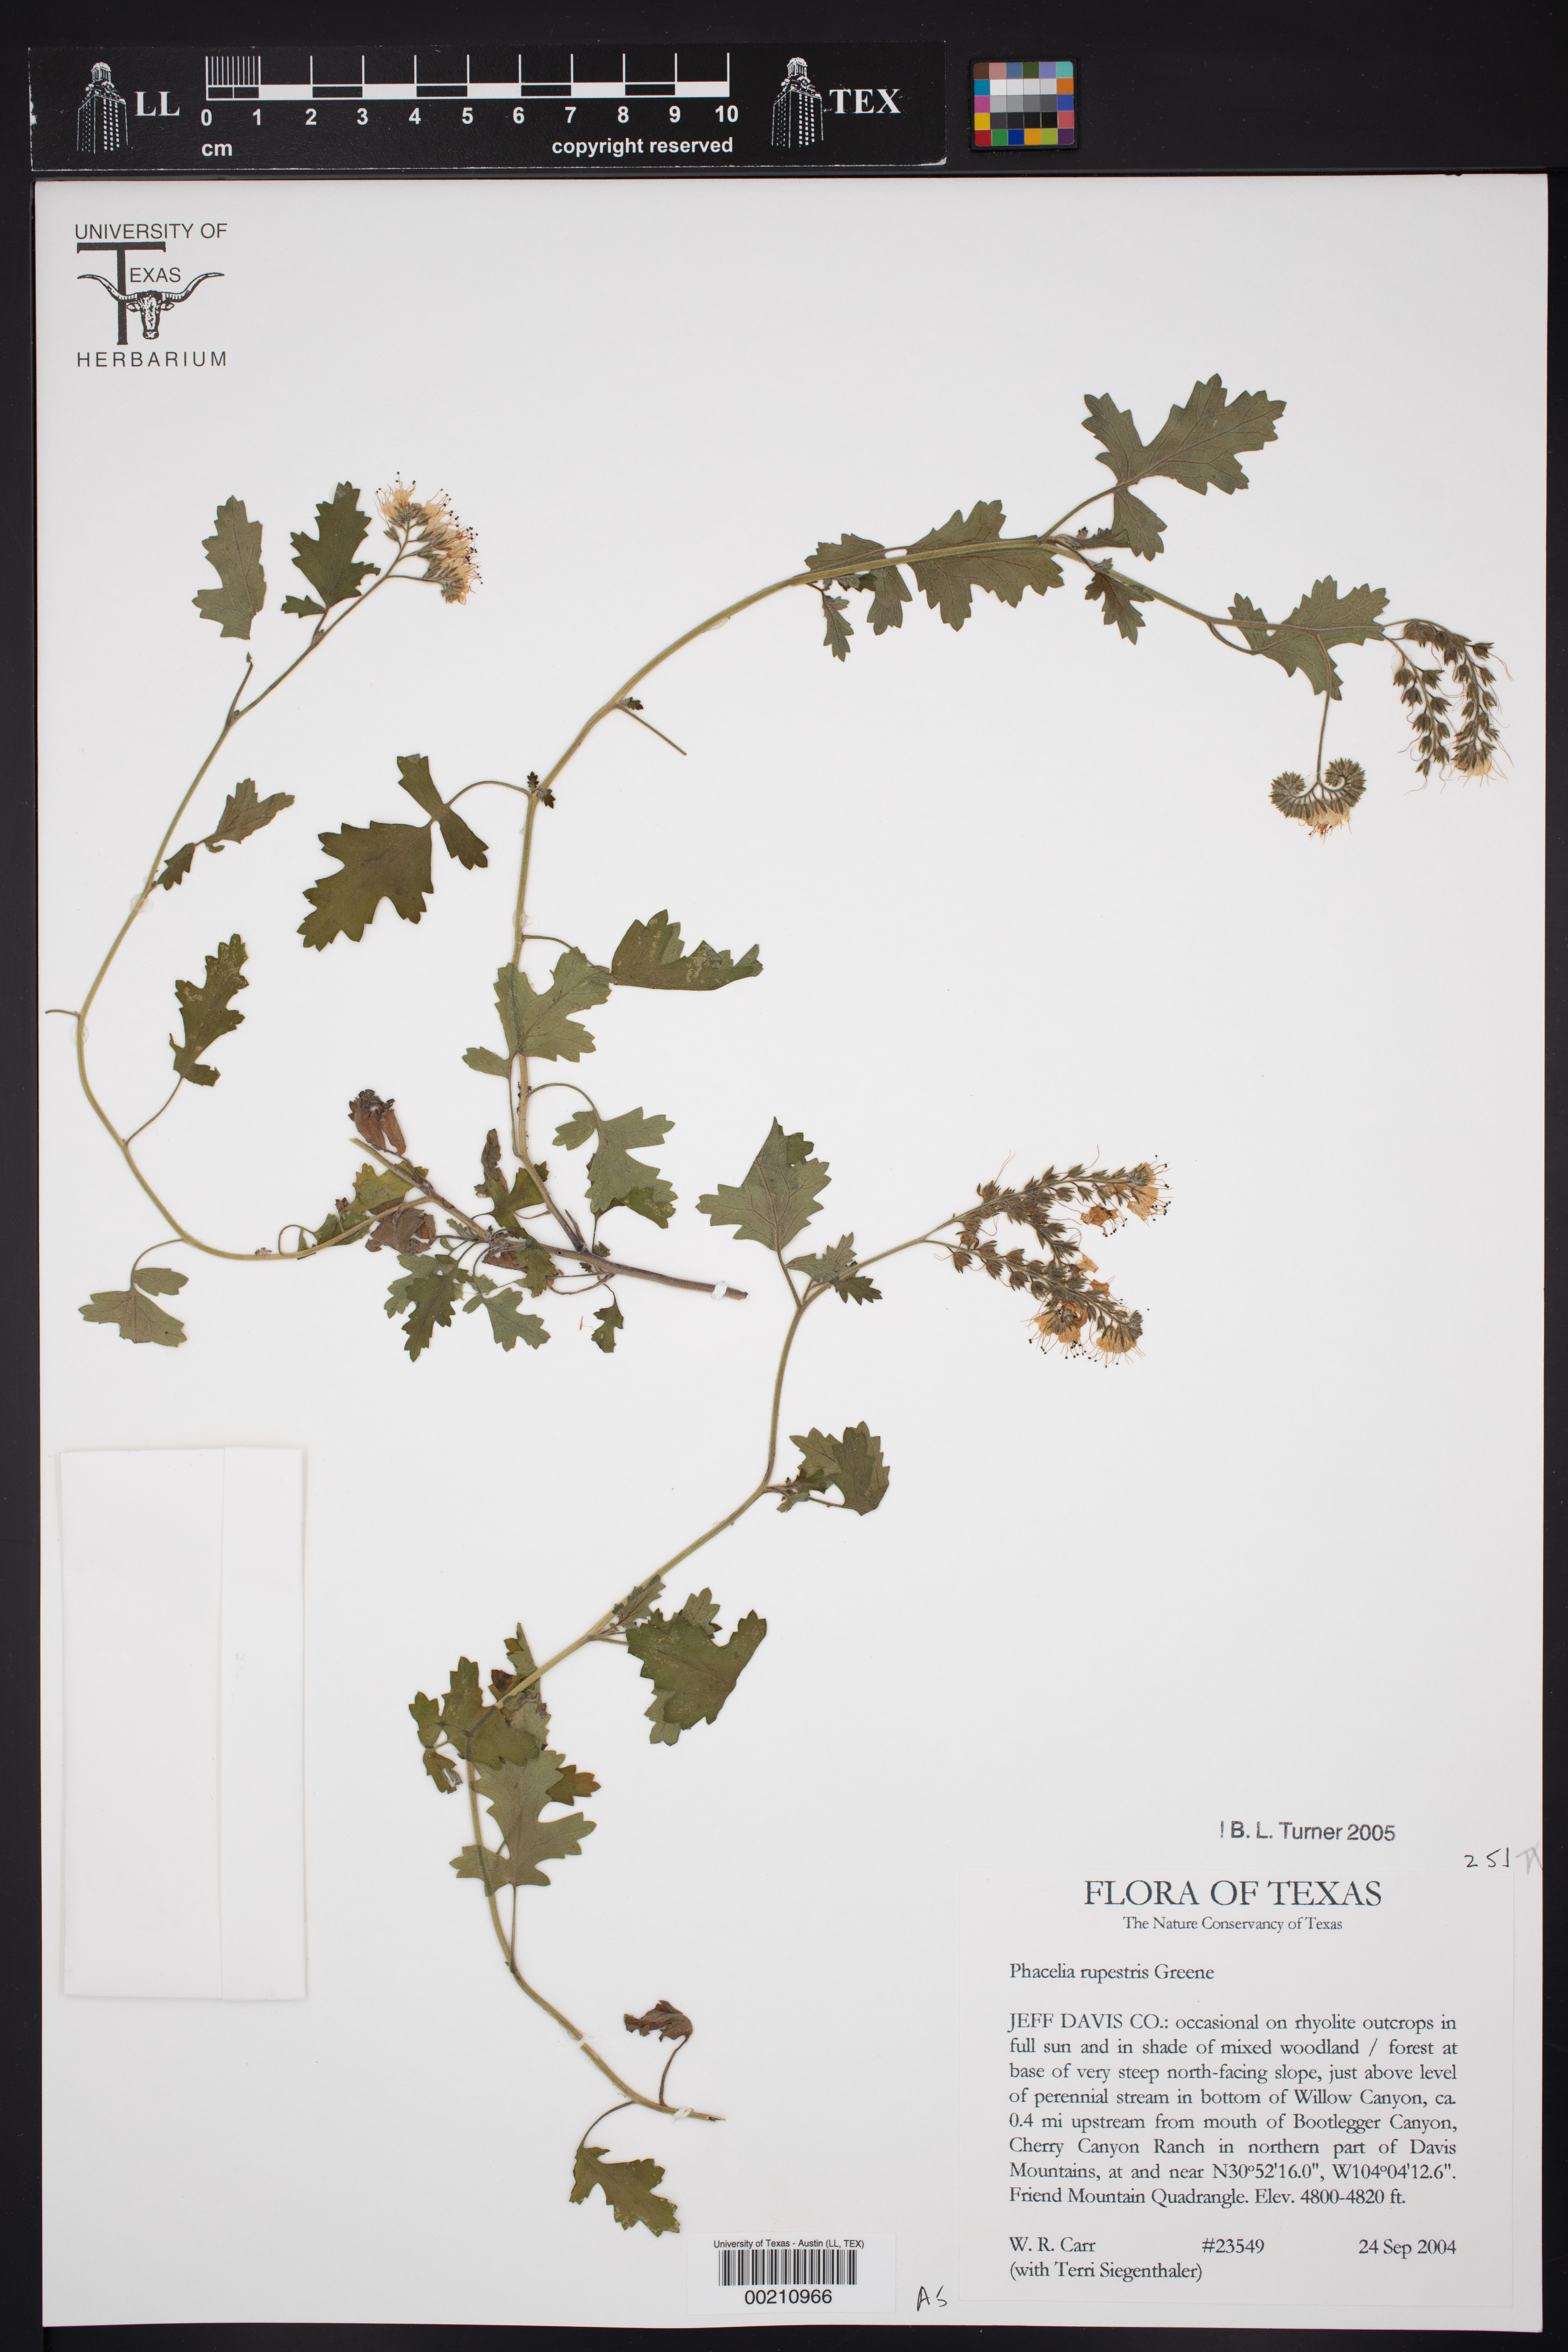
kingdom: Plantae
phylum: Tracheophyta
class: Magnoliopsida
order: Boraginales
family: Hydrophyllaceae
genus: Phacelia
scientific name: Phacelia rupestris
